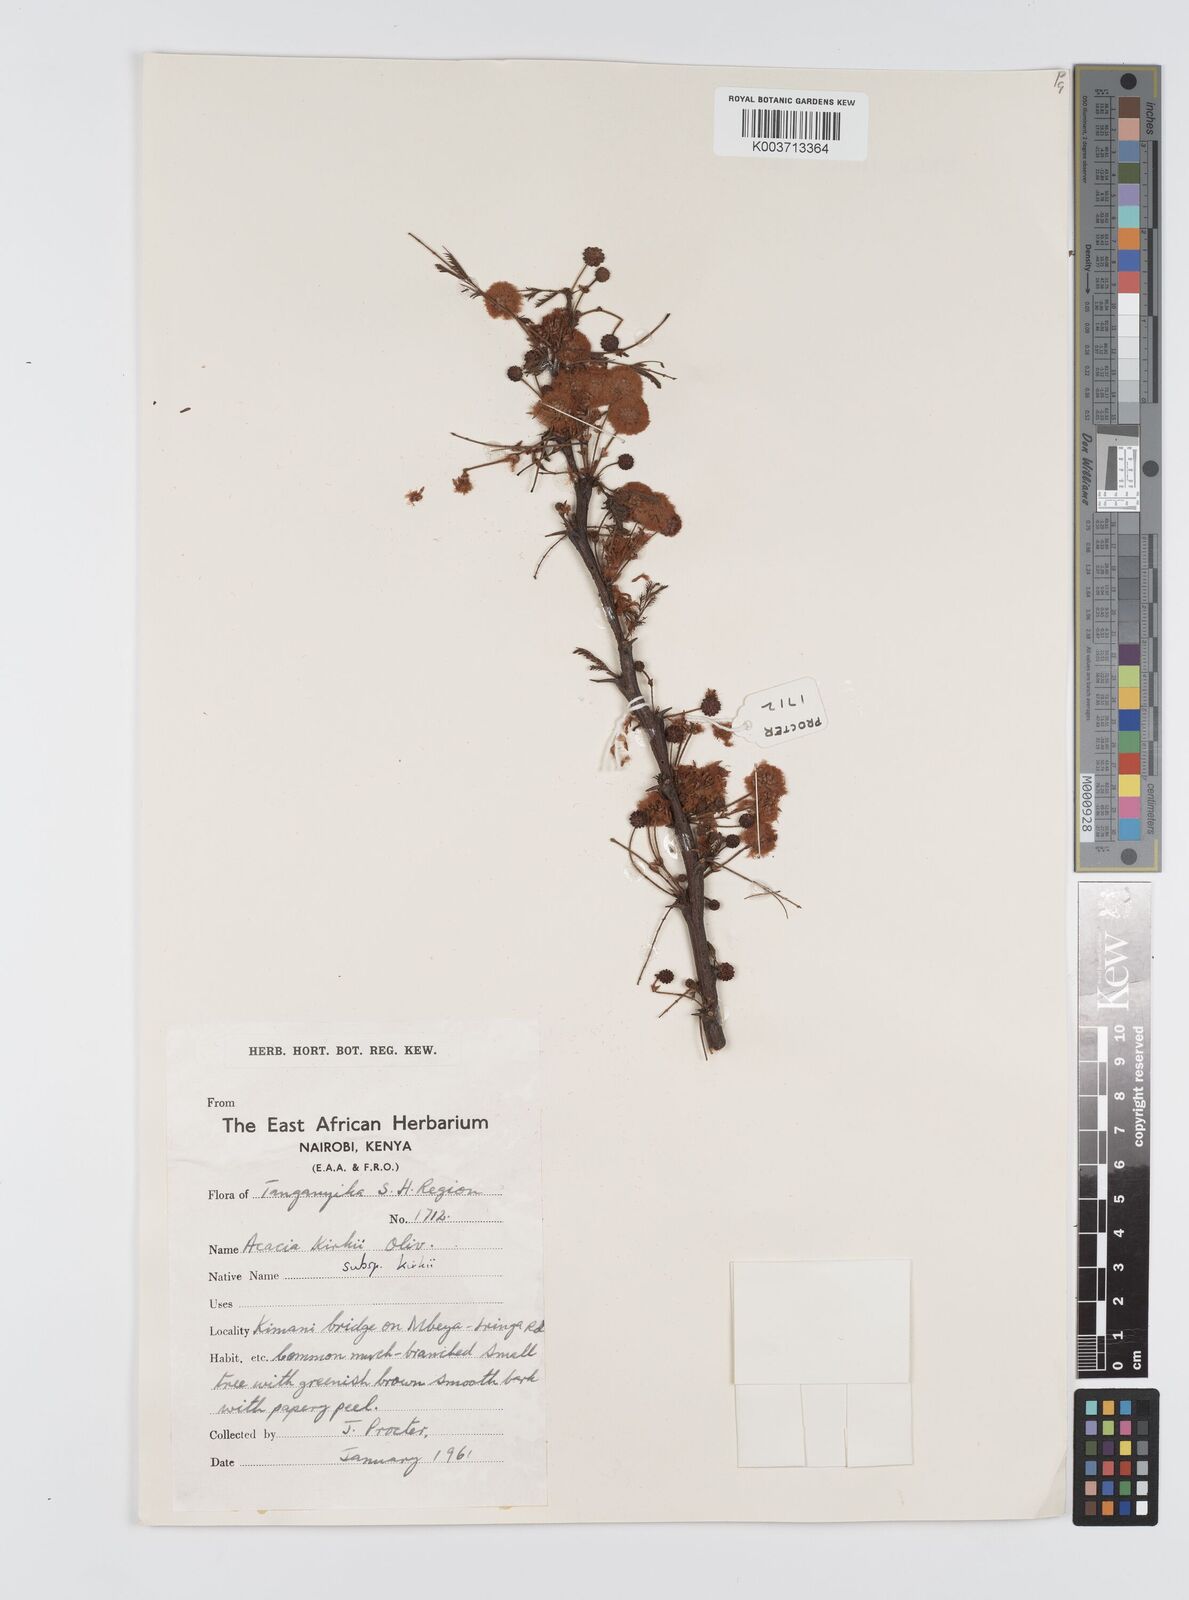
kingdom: Plantae
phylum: Tracheophyta
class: Magnoliopsida
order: Fabales
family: Fabaceae
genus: Vachellia
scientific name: Vachellia kirkii
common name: Flood-plain acacia
